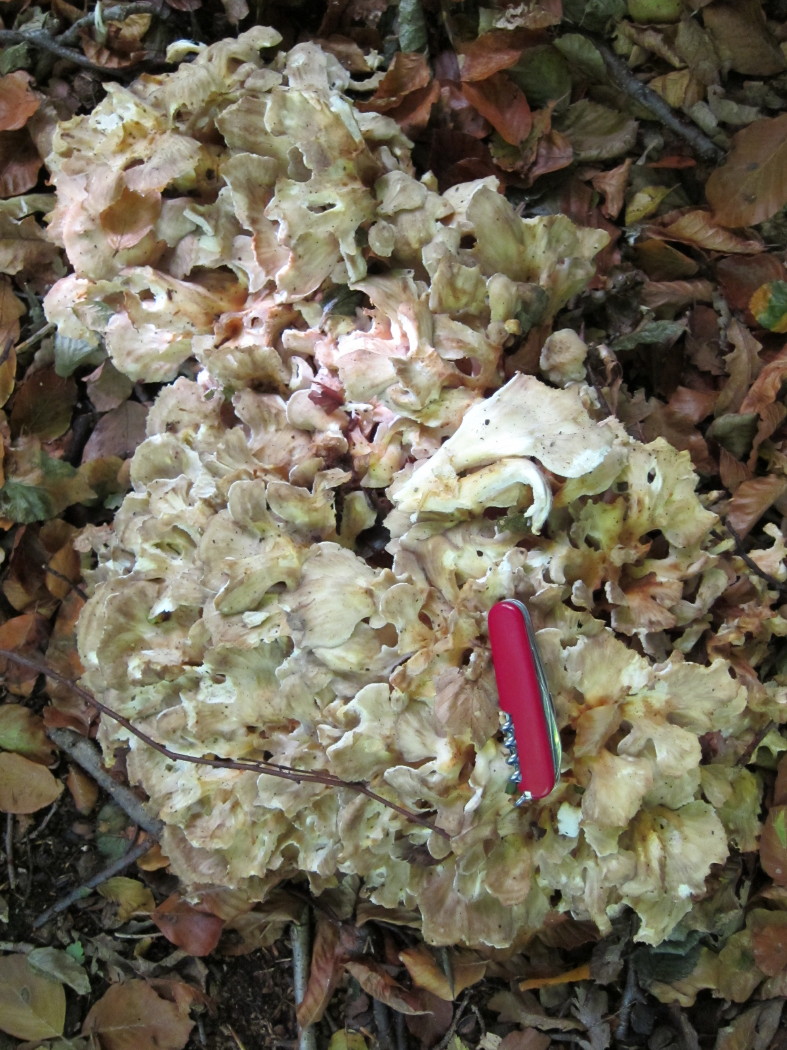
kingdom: Fungi
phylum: Basidiomycota
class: Agaricomycetes
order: Polyporales
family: Grifolaceae
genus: Grifola
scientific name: Grifola frondosa
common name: tueporesvamp
